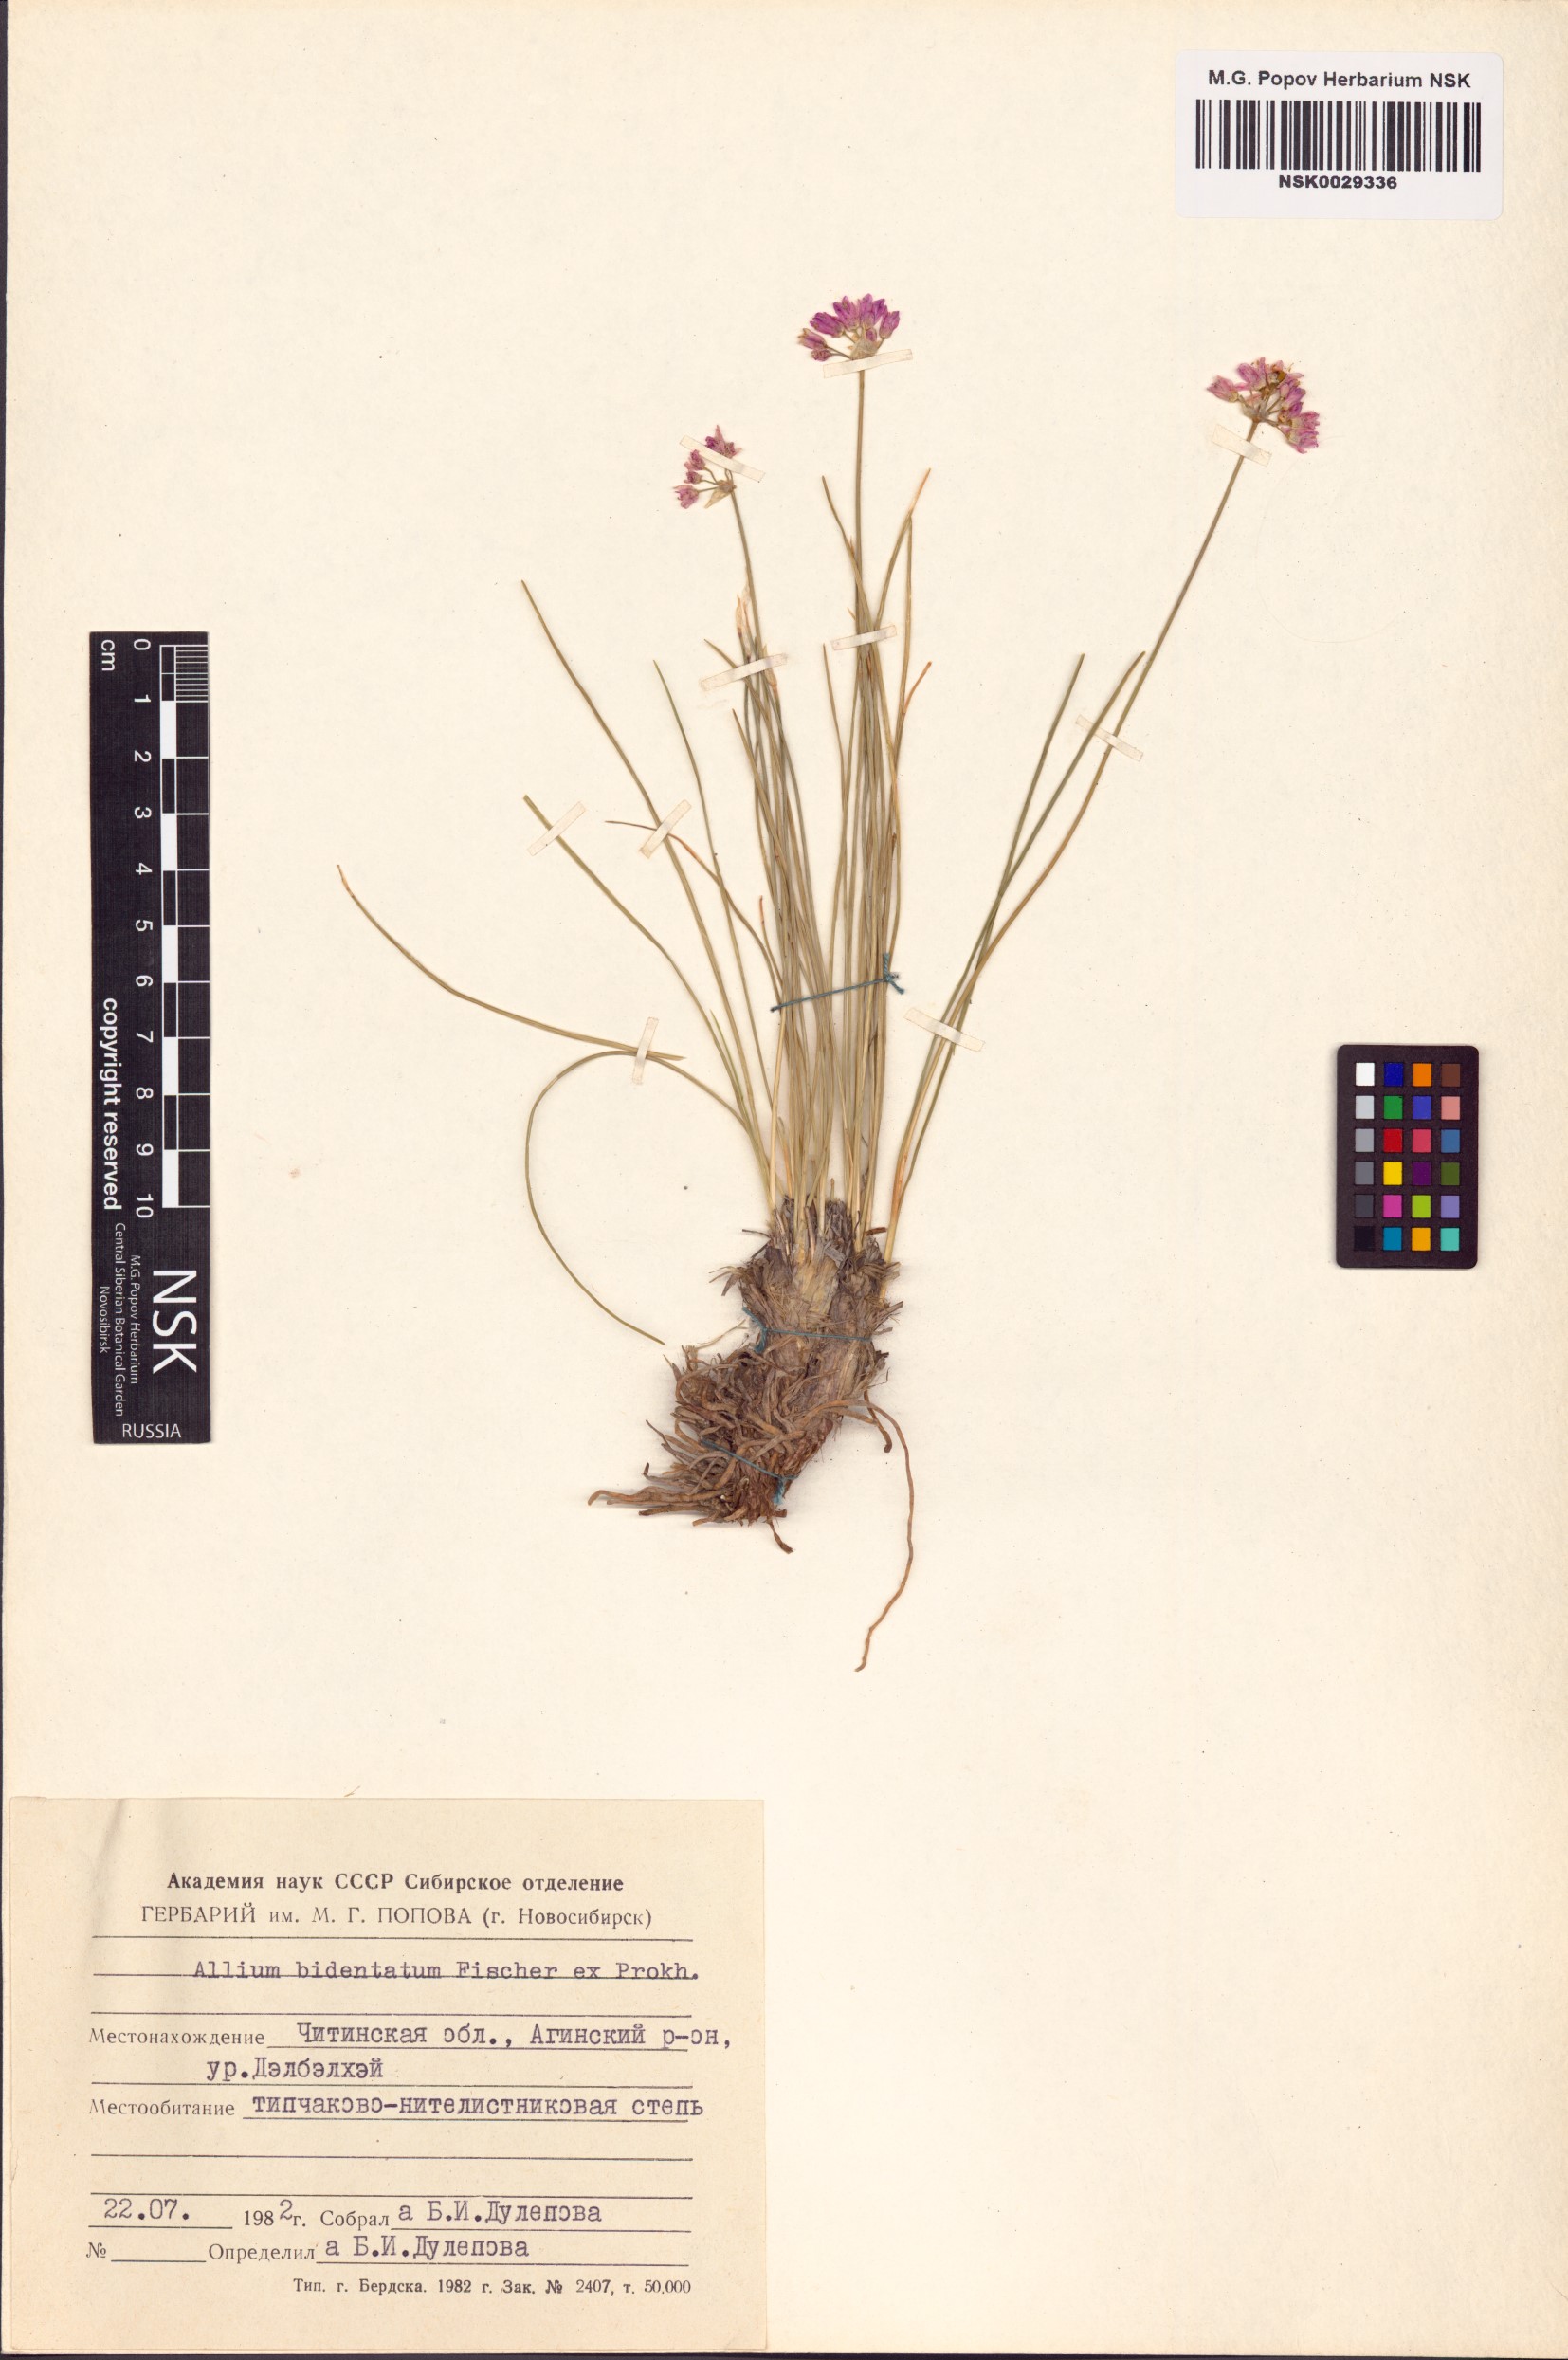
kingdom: Plantae
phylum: Tracheophyta
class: Liliopsida
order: Asparagales
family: Amaryllidaceae
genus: Allium
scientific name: Allium bidentatum
